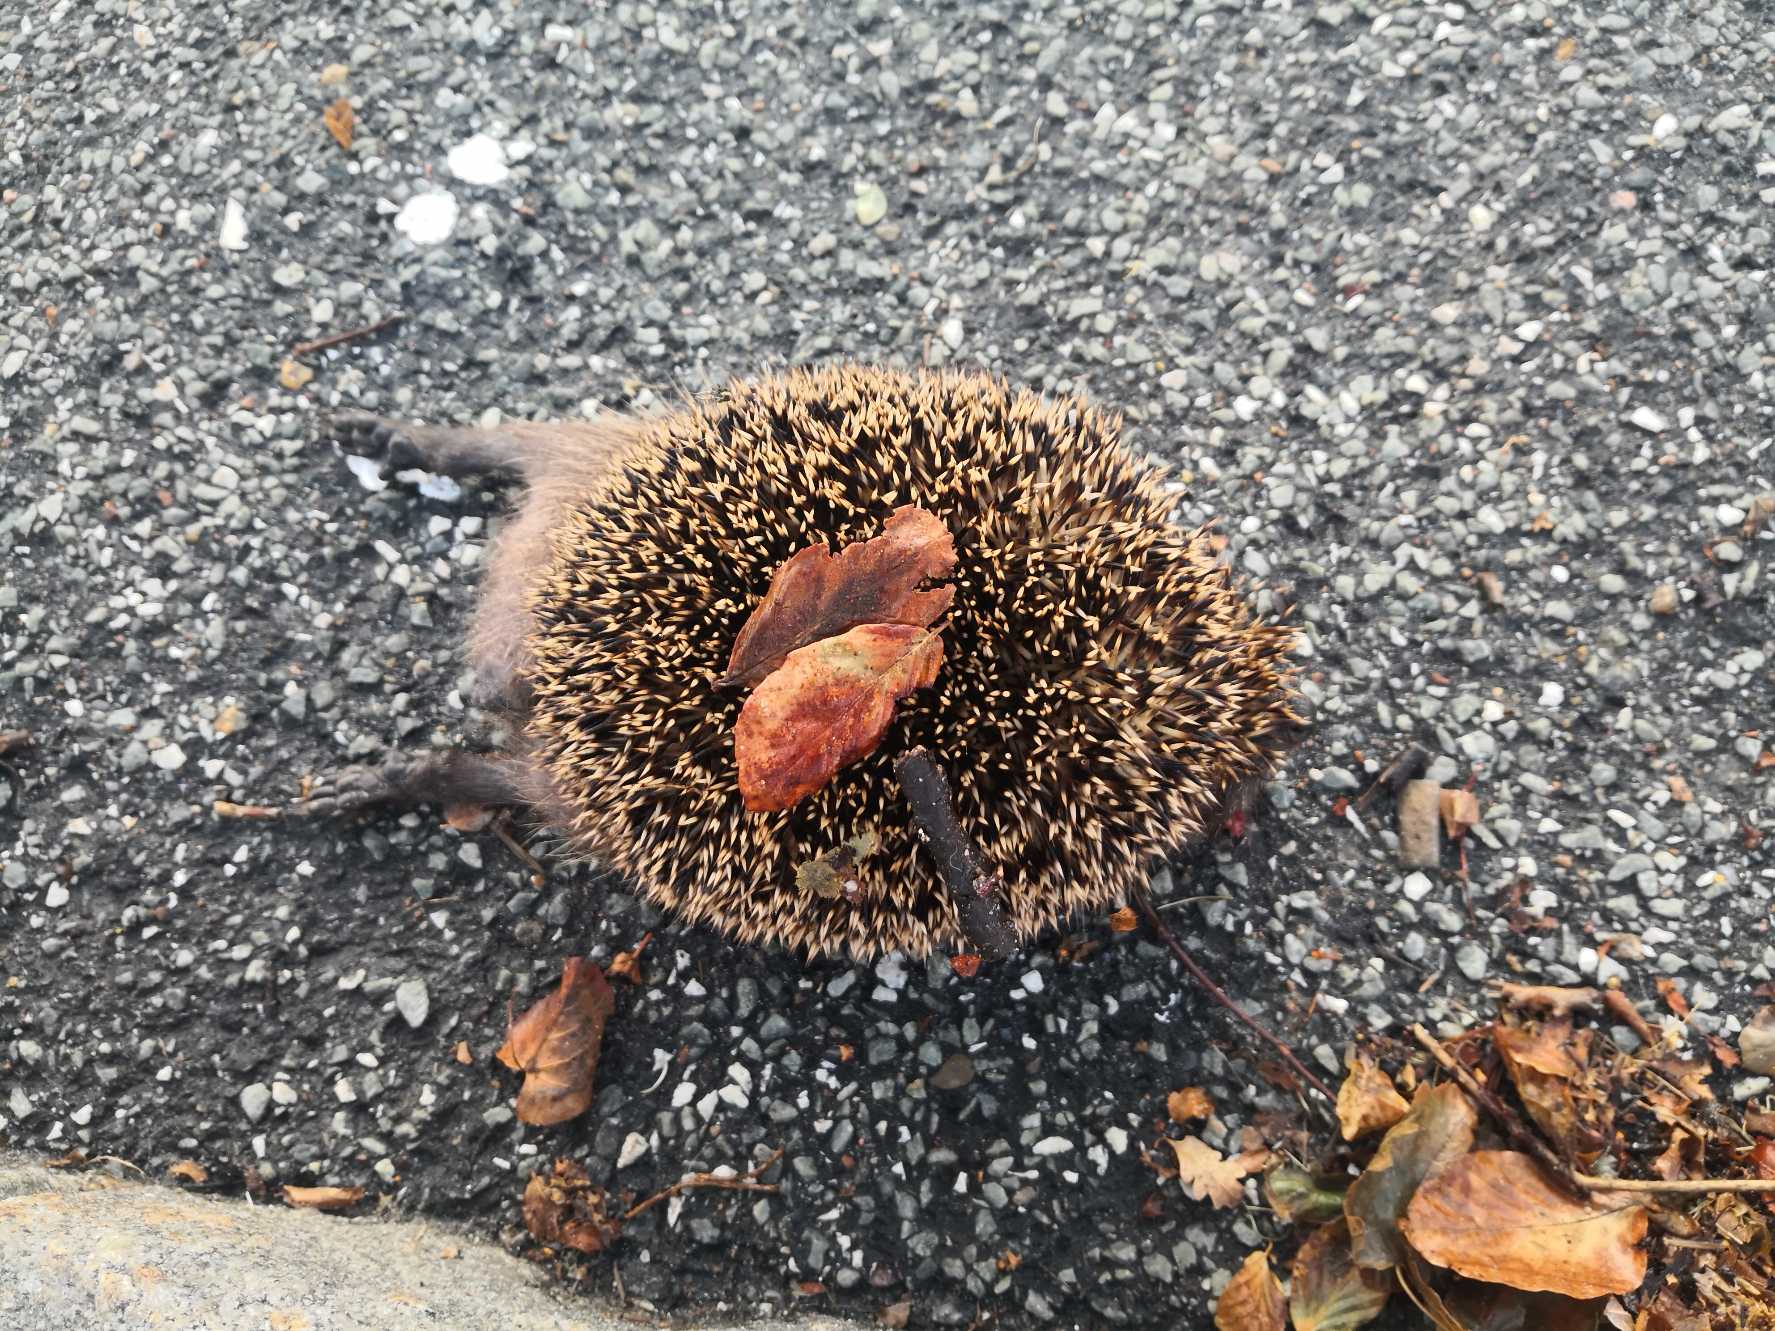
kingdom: Animalia
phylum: Chordata
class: Mammalia
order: Erinaceomorpha
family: Erinaceidae
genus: Erinaceus
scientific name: Erinaceus europaeus
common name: Pindsvin
